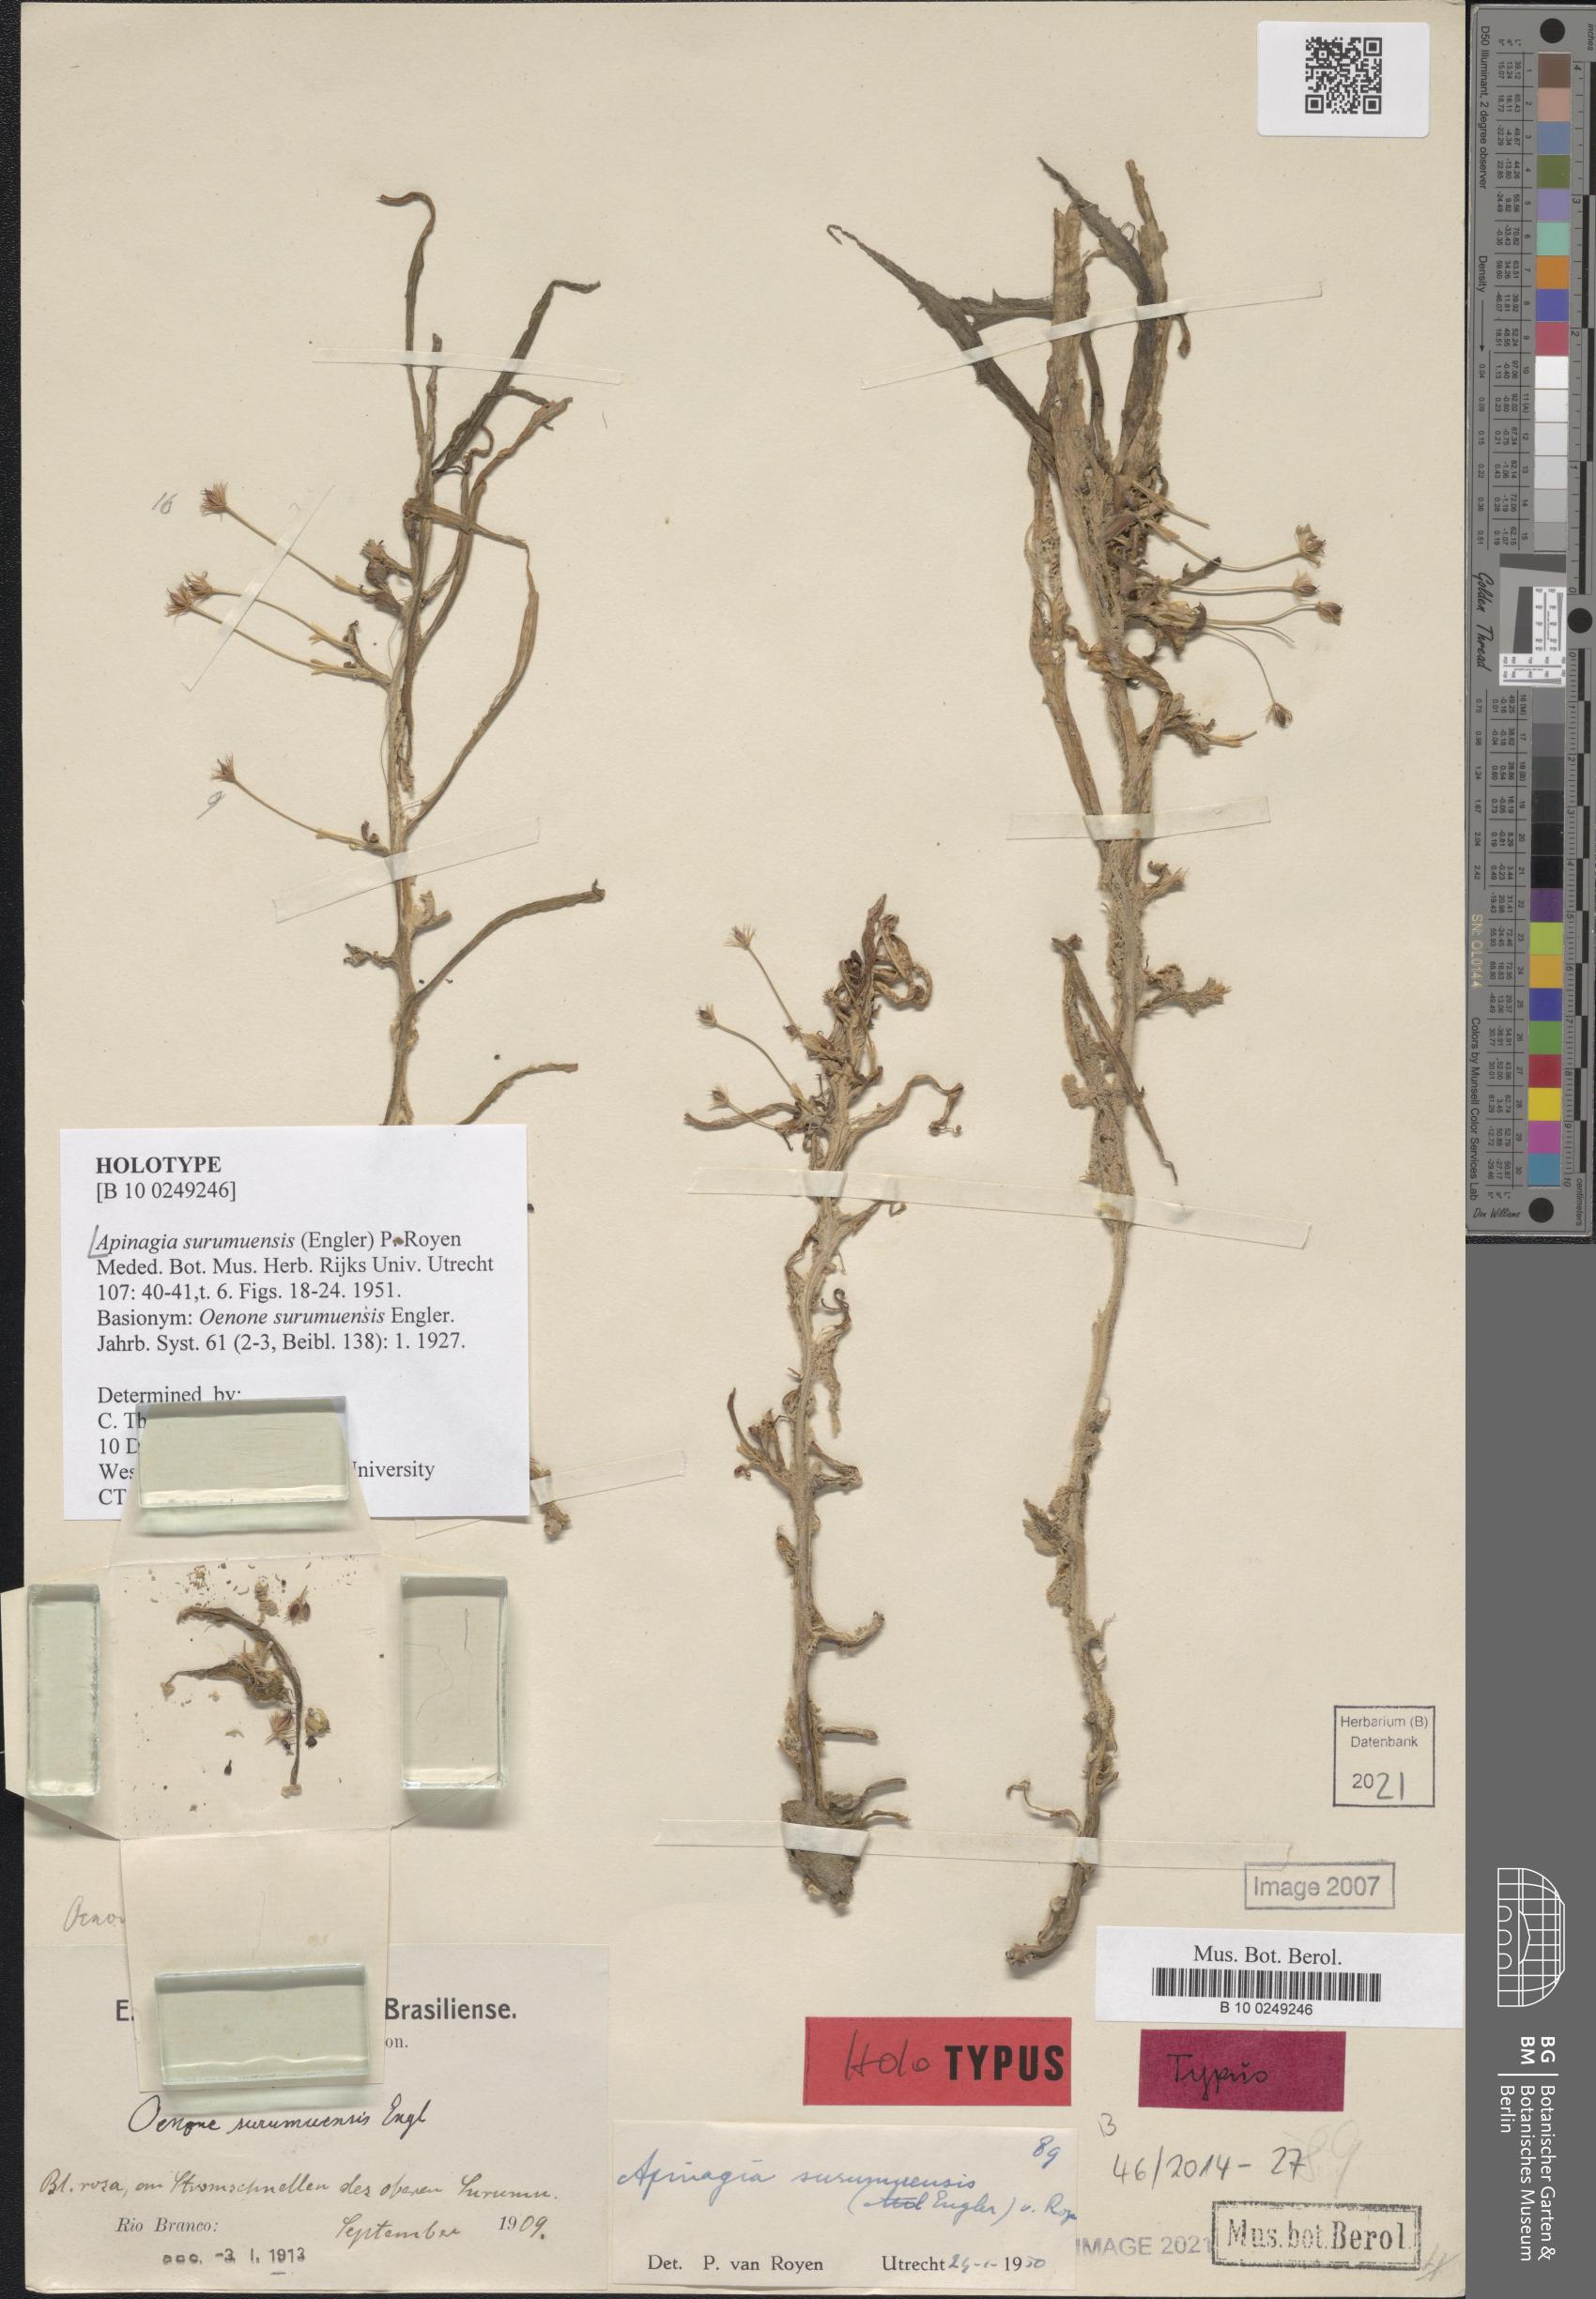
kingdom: Plantae
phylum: Tracheophyta
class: Magnoliopsida
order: Malpighiales
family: Podostemaceae
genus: Apinagia
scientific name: Apinagia surumuensis
